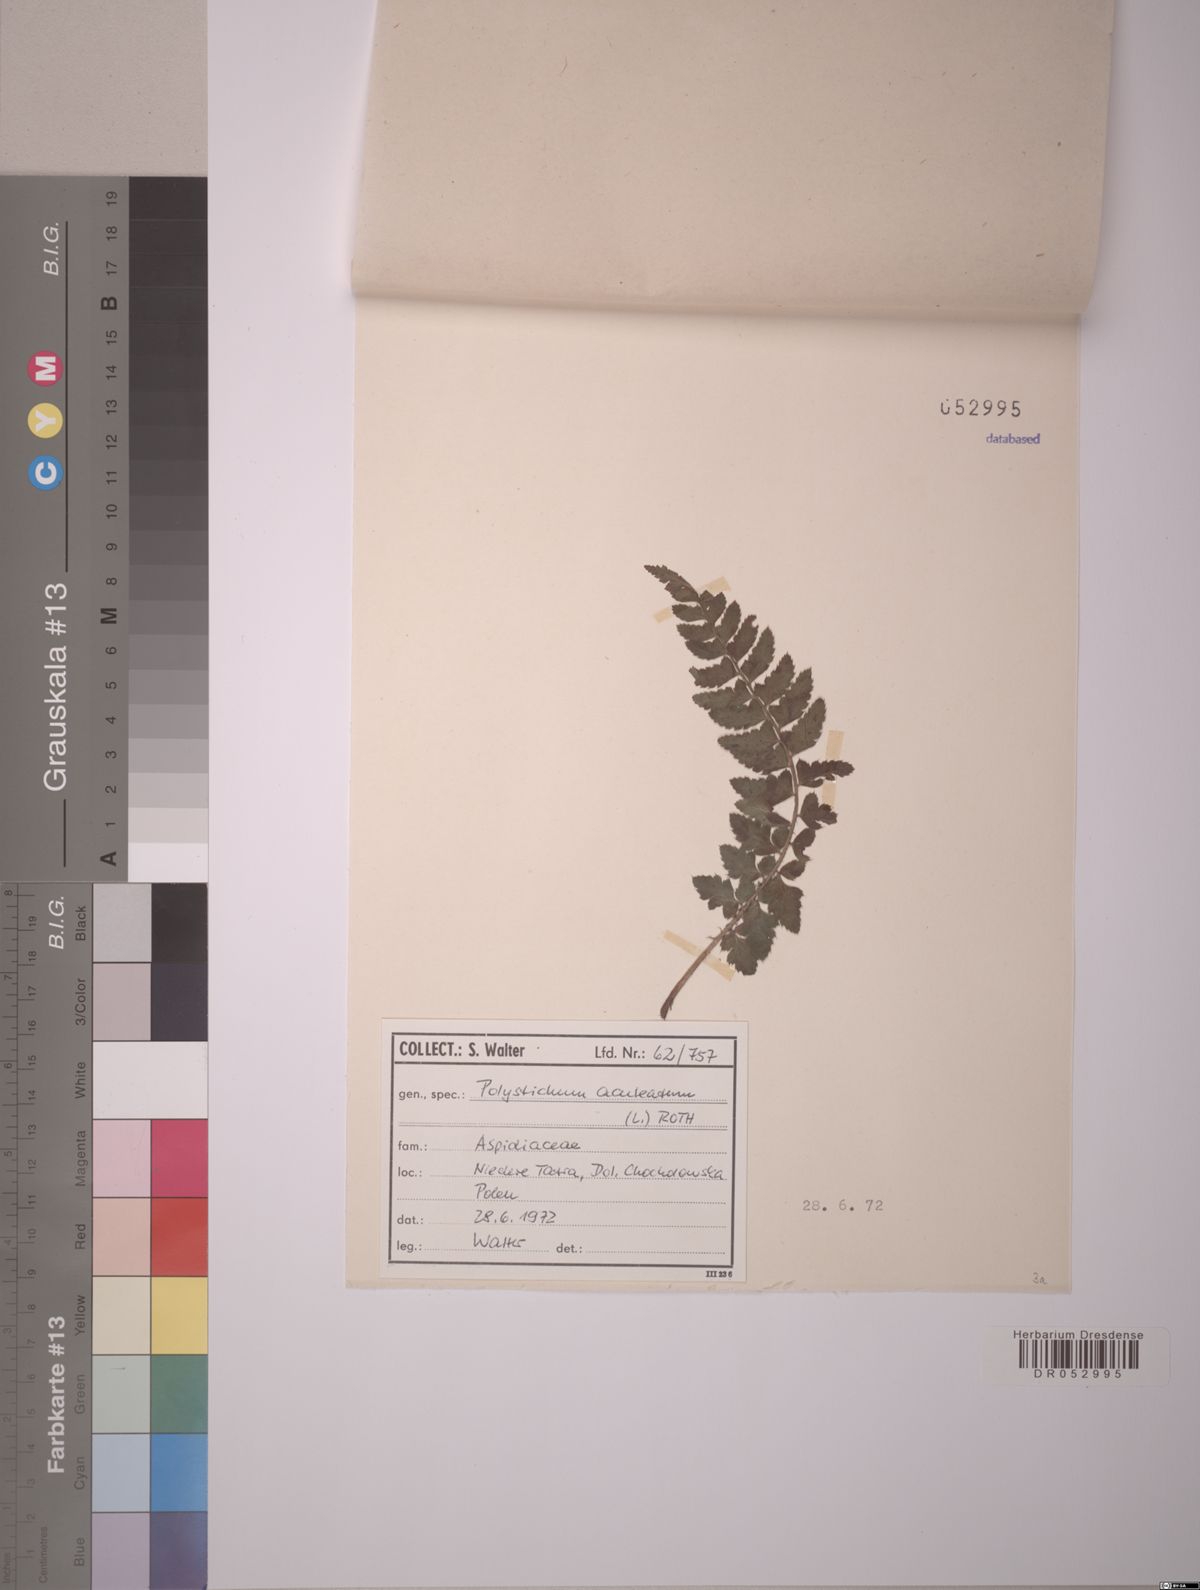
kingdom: Plantae
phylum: Tracheophyta
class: Polypodiopsida
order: Polypodiales
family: Dryopteridaceae
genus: Polystichum
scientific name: Polystichum aculeatum
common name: Hard shield-fern
